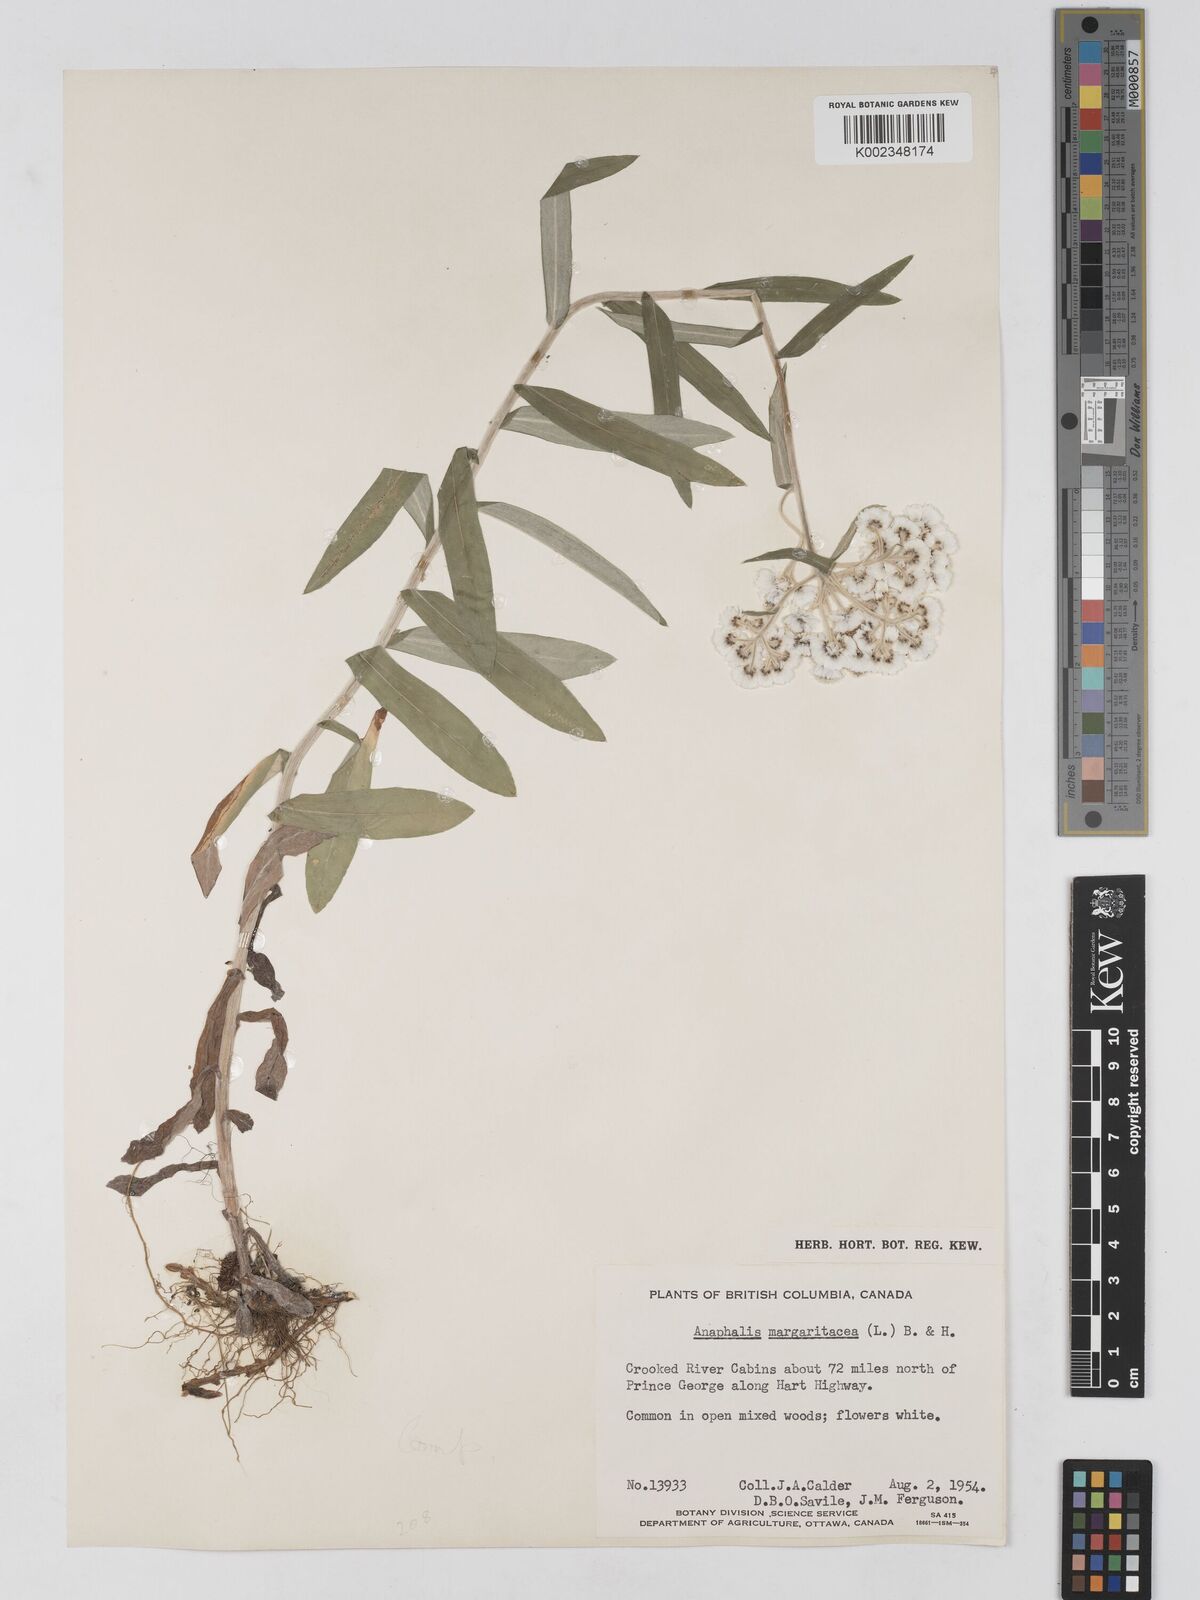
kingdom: Plantae
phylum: Tracheophyta
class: Magnoliopsida
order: Asterales
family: Asteraceae
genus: Anaphalis
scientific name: Anaphalis margaritacea
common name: Pearly everlasting
